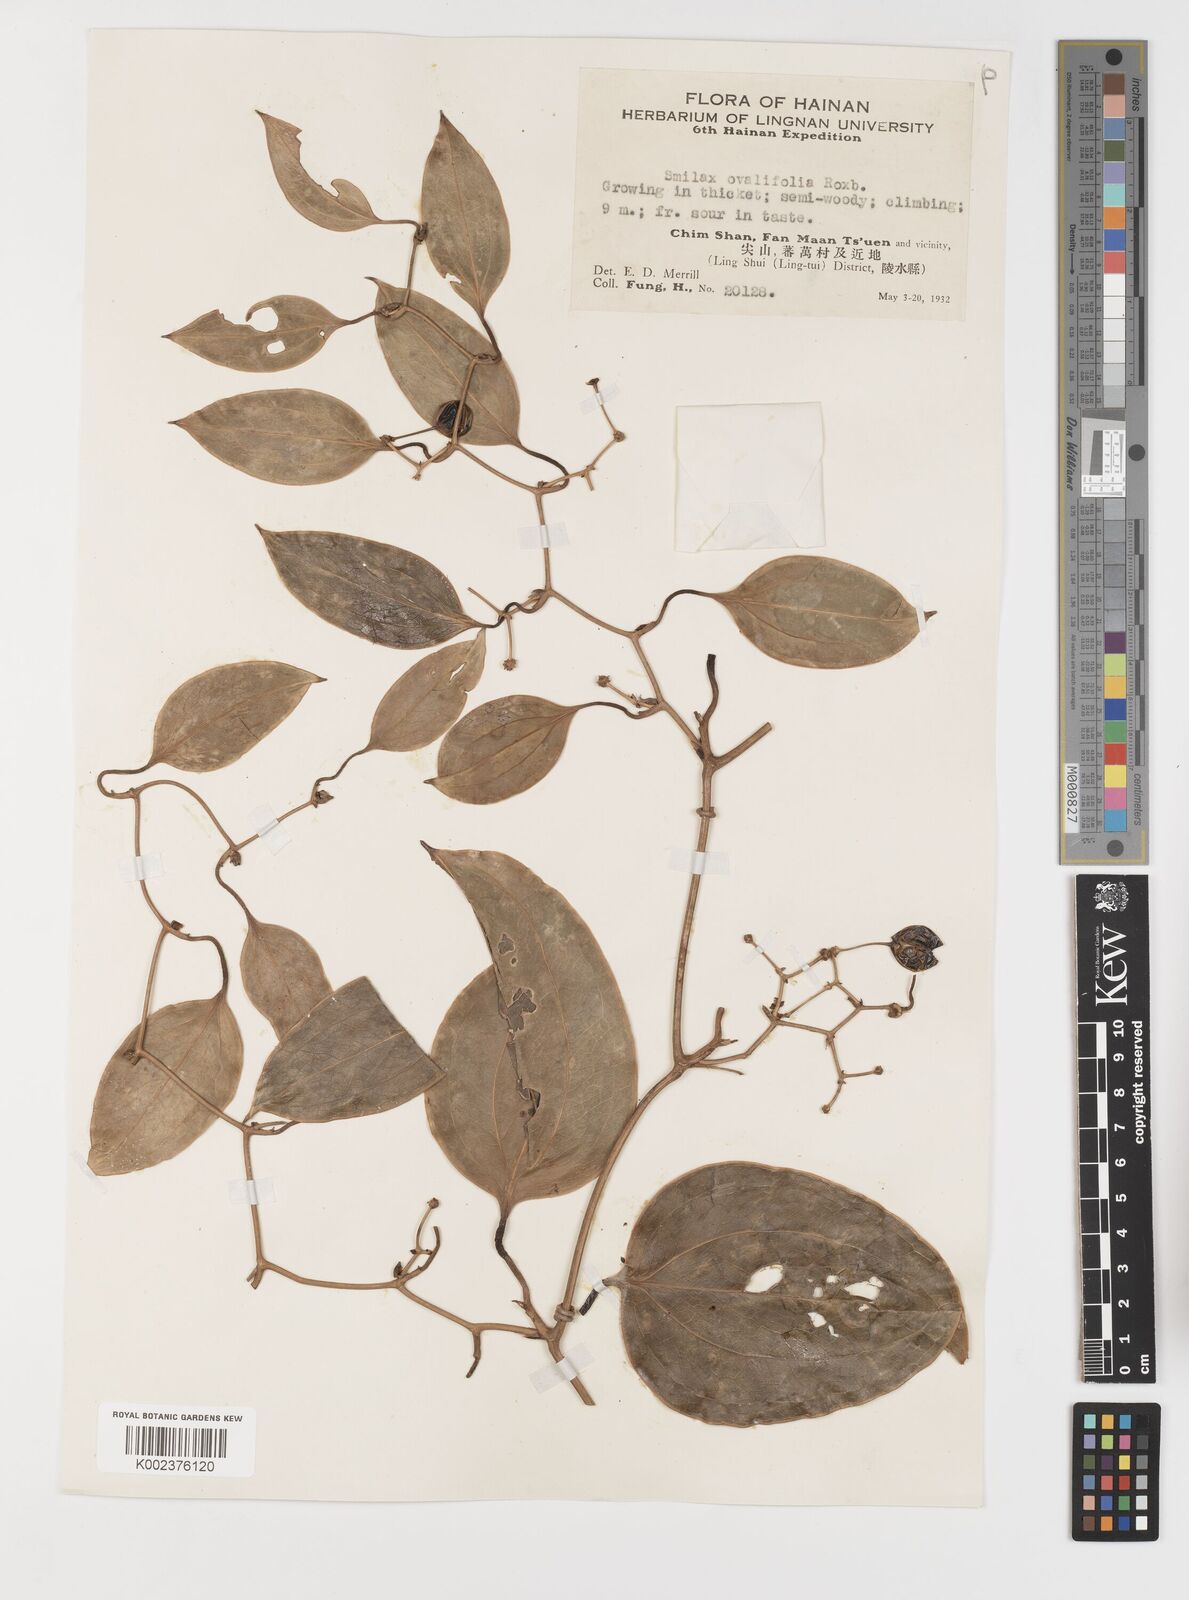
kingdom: Plantae
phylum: Tracheophyta
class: Liliopsida
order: Liliales
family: Smilacaceae
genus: Smilax
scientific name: Smilax ovalifolia
